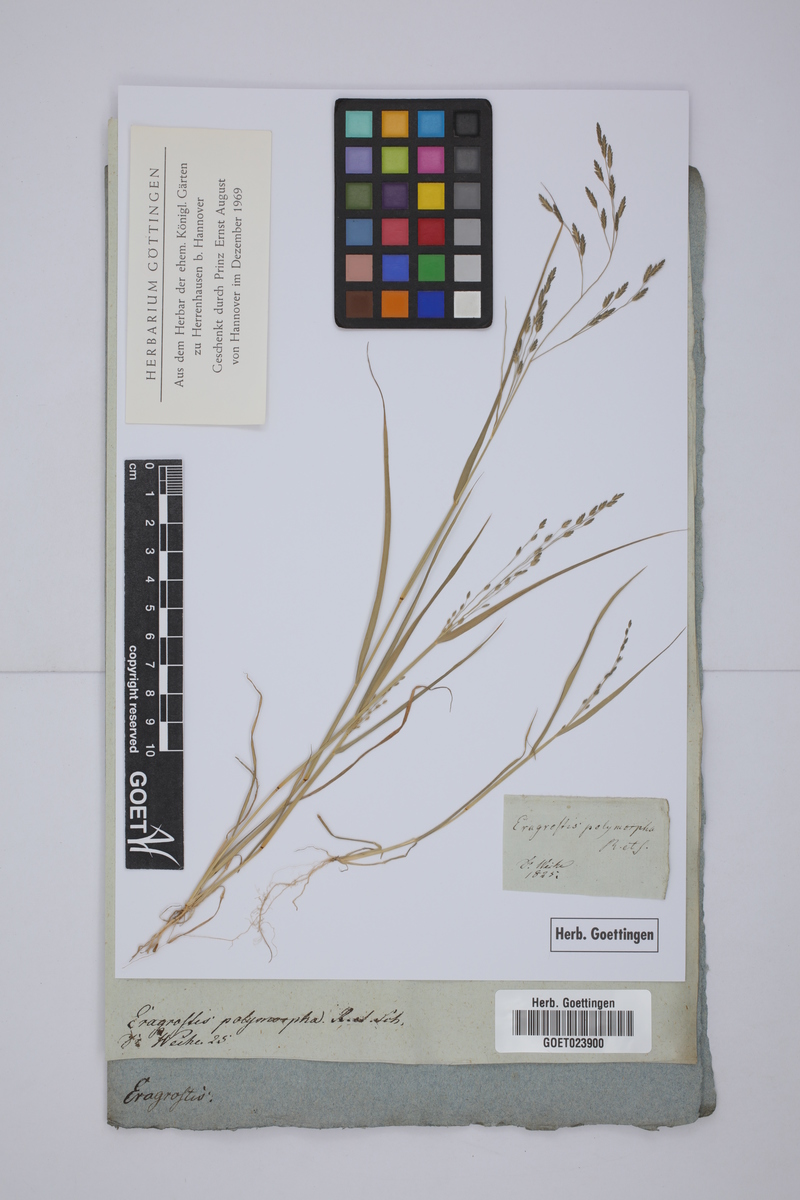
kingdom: Plantae
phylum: Tracheophyta
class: Liliopsida
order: Poales
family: Poaceae
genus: Eragrostis
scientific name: Eragrostis cilianensis
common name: Stinkgrass
